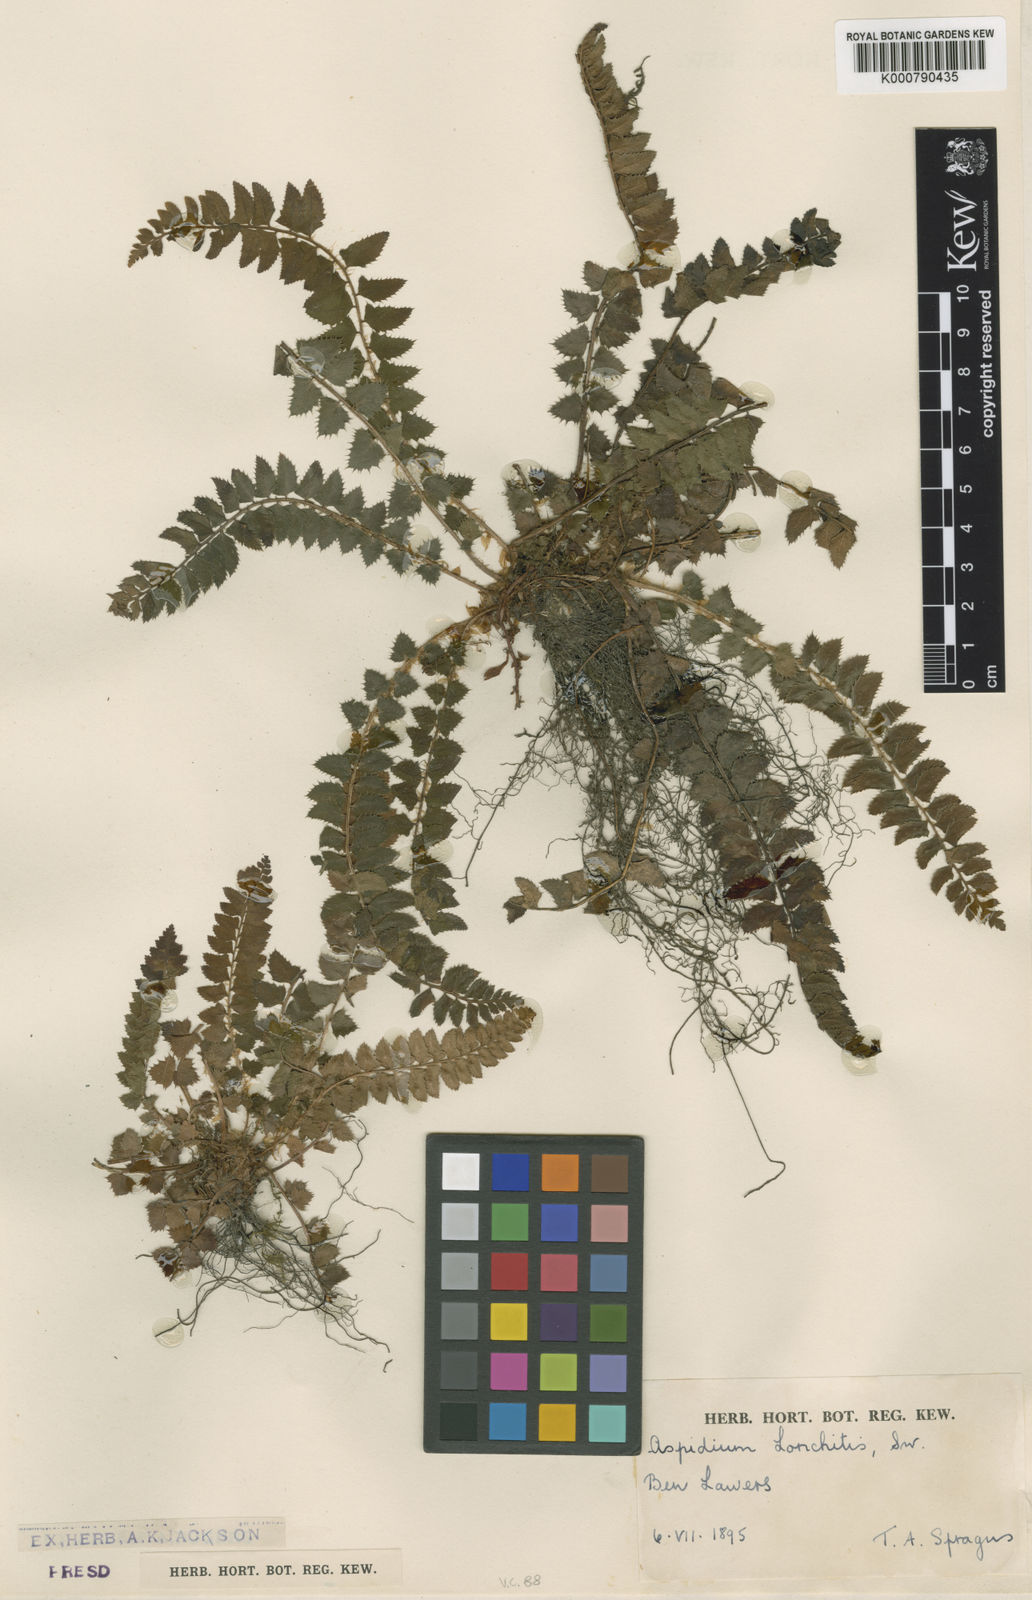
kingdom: Plantae
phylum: Tracheophyta
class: Polypodiopsida
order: Polypodiales
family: Dryopteridaceae
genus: Polystichum
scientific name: Polystichum
